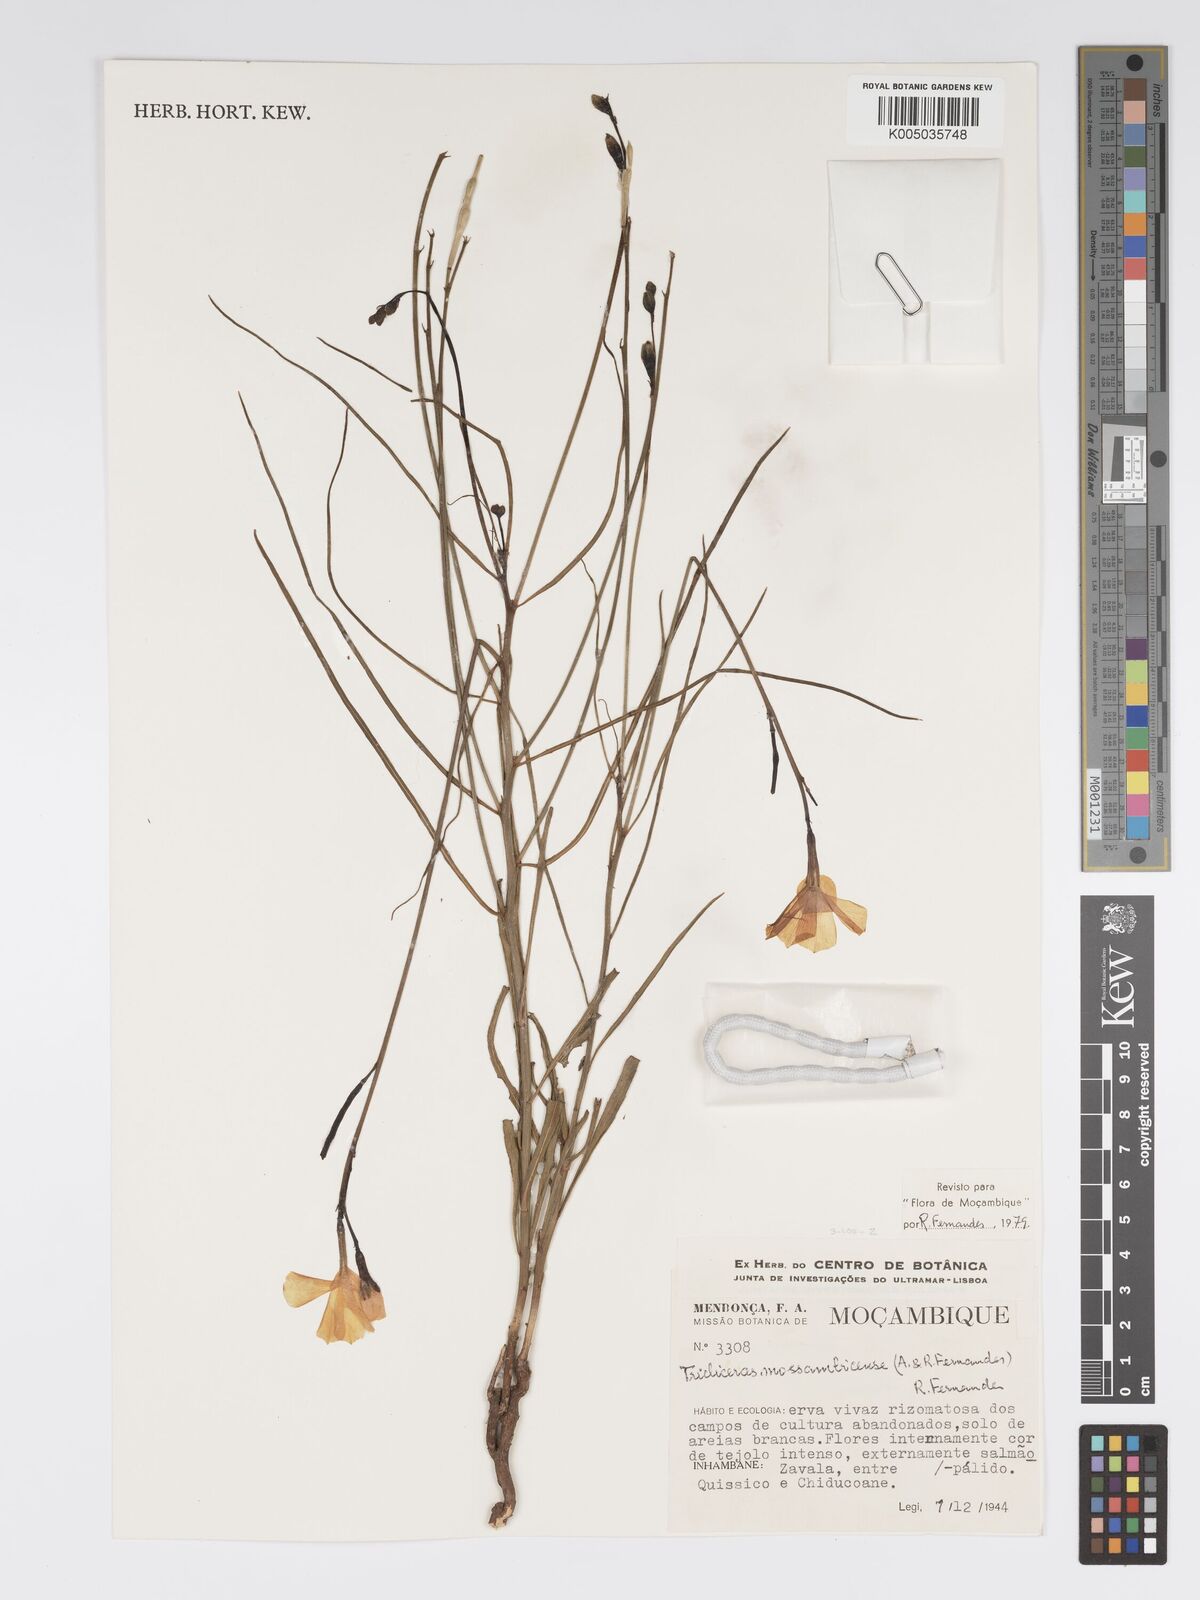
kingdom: Plantae
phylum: Tracheophyta
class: Magnoliopsida
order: Malpighiales
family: Turneraceae
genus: Tricliceras
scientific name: Tricliceras mossambicense
